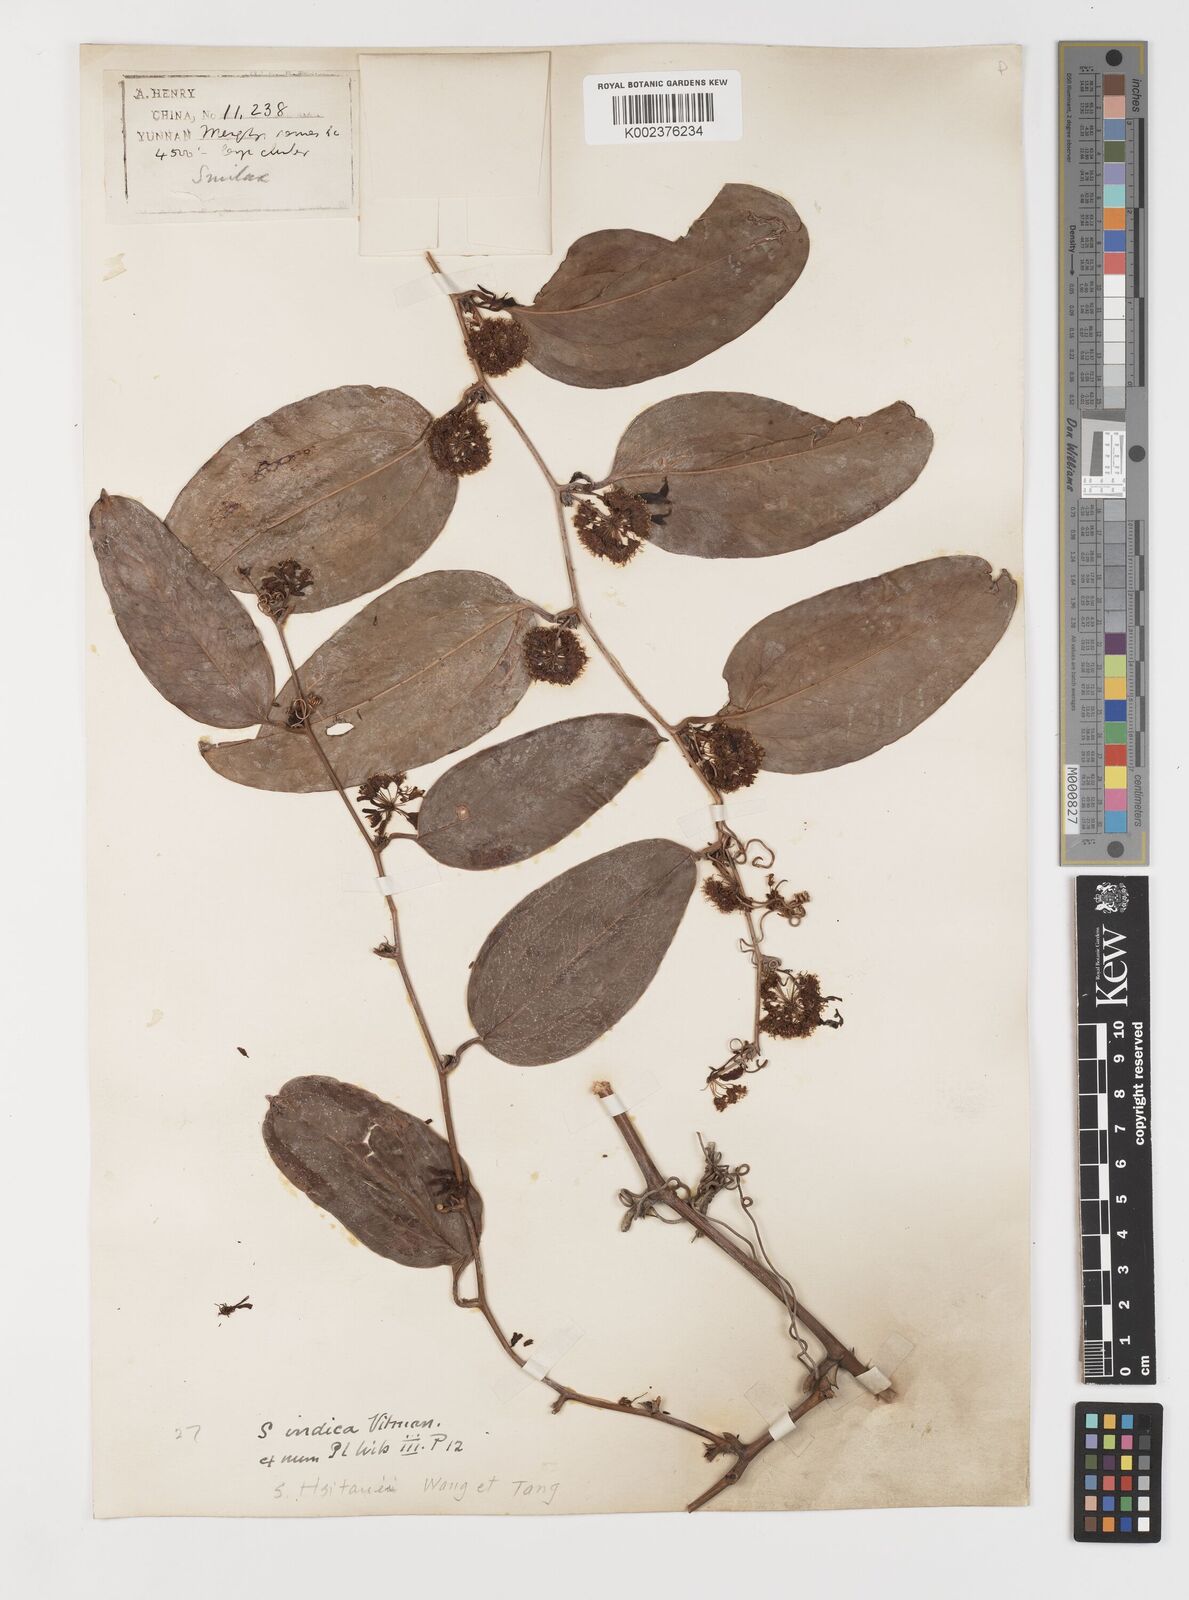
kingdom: Plantae
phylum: Tracheophyta
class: Liliopsida
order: Liliales
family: Smilacaceae
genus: Smilax
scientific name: Smilax
